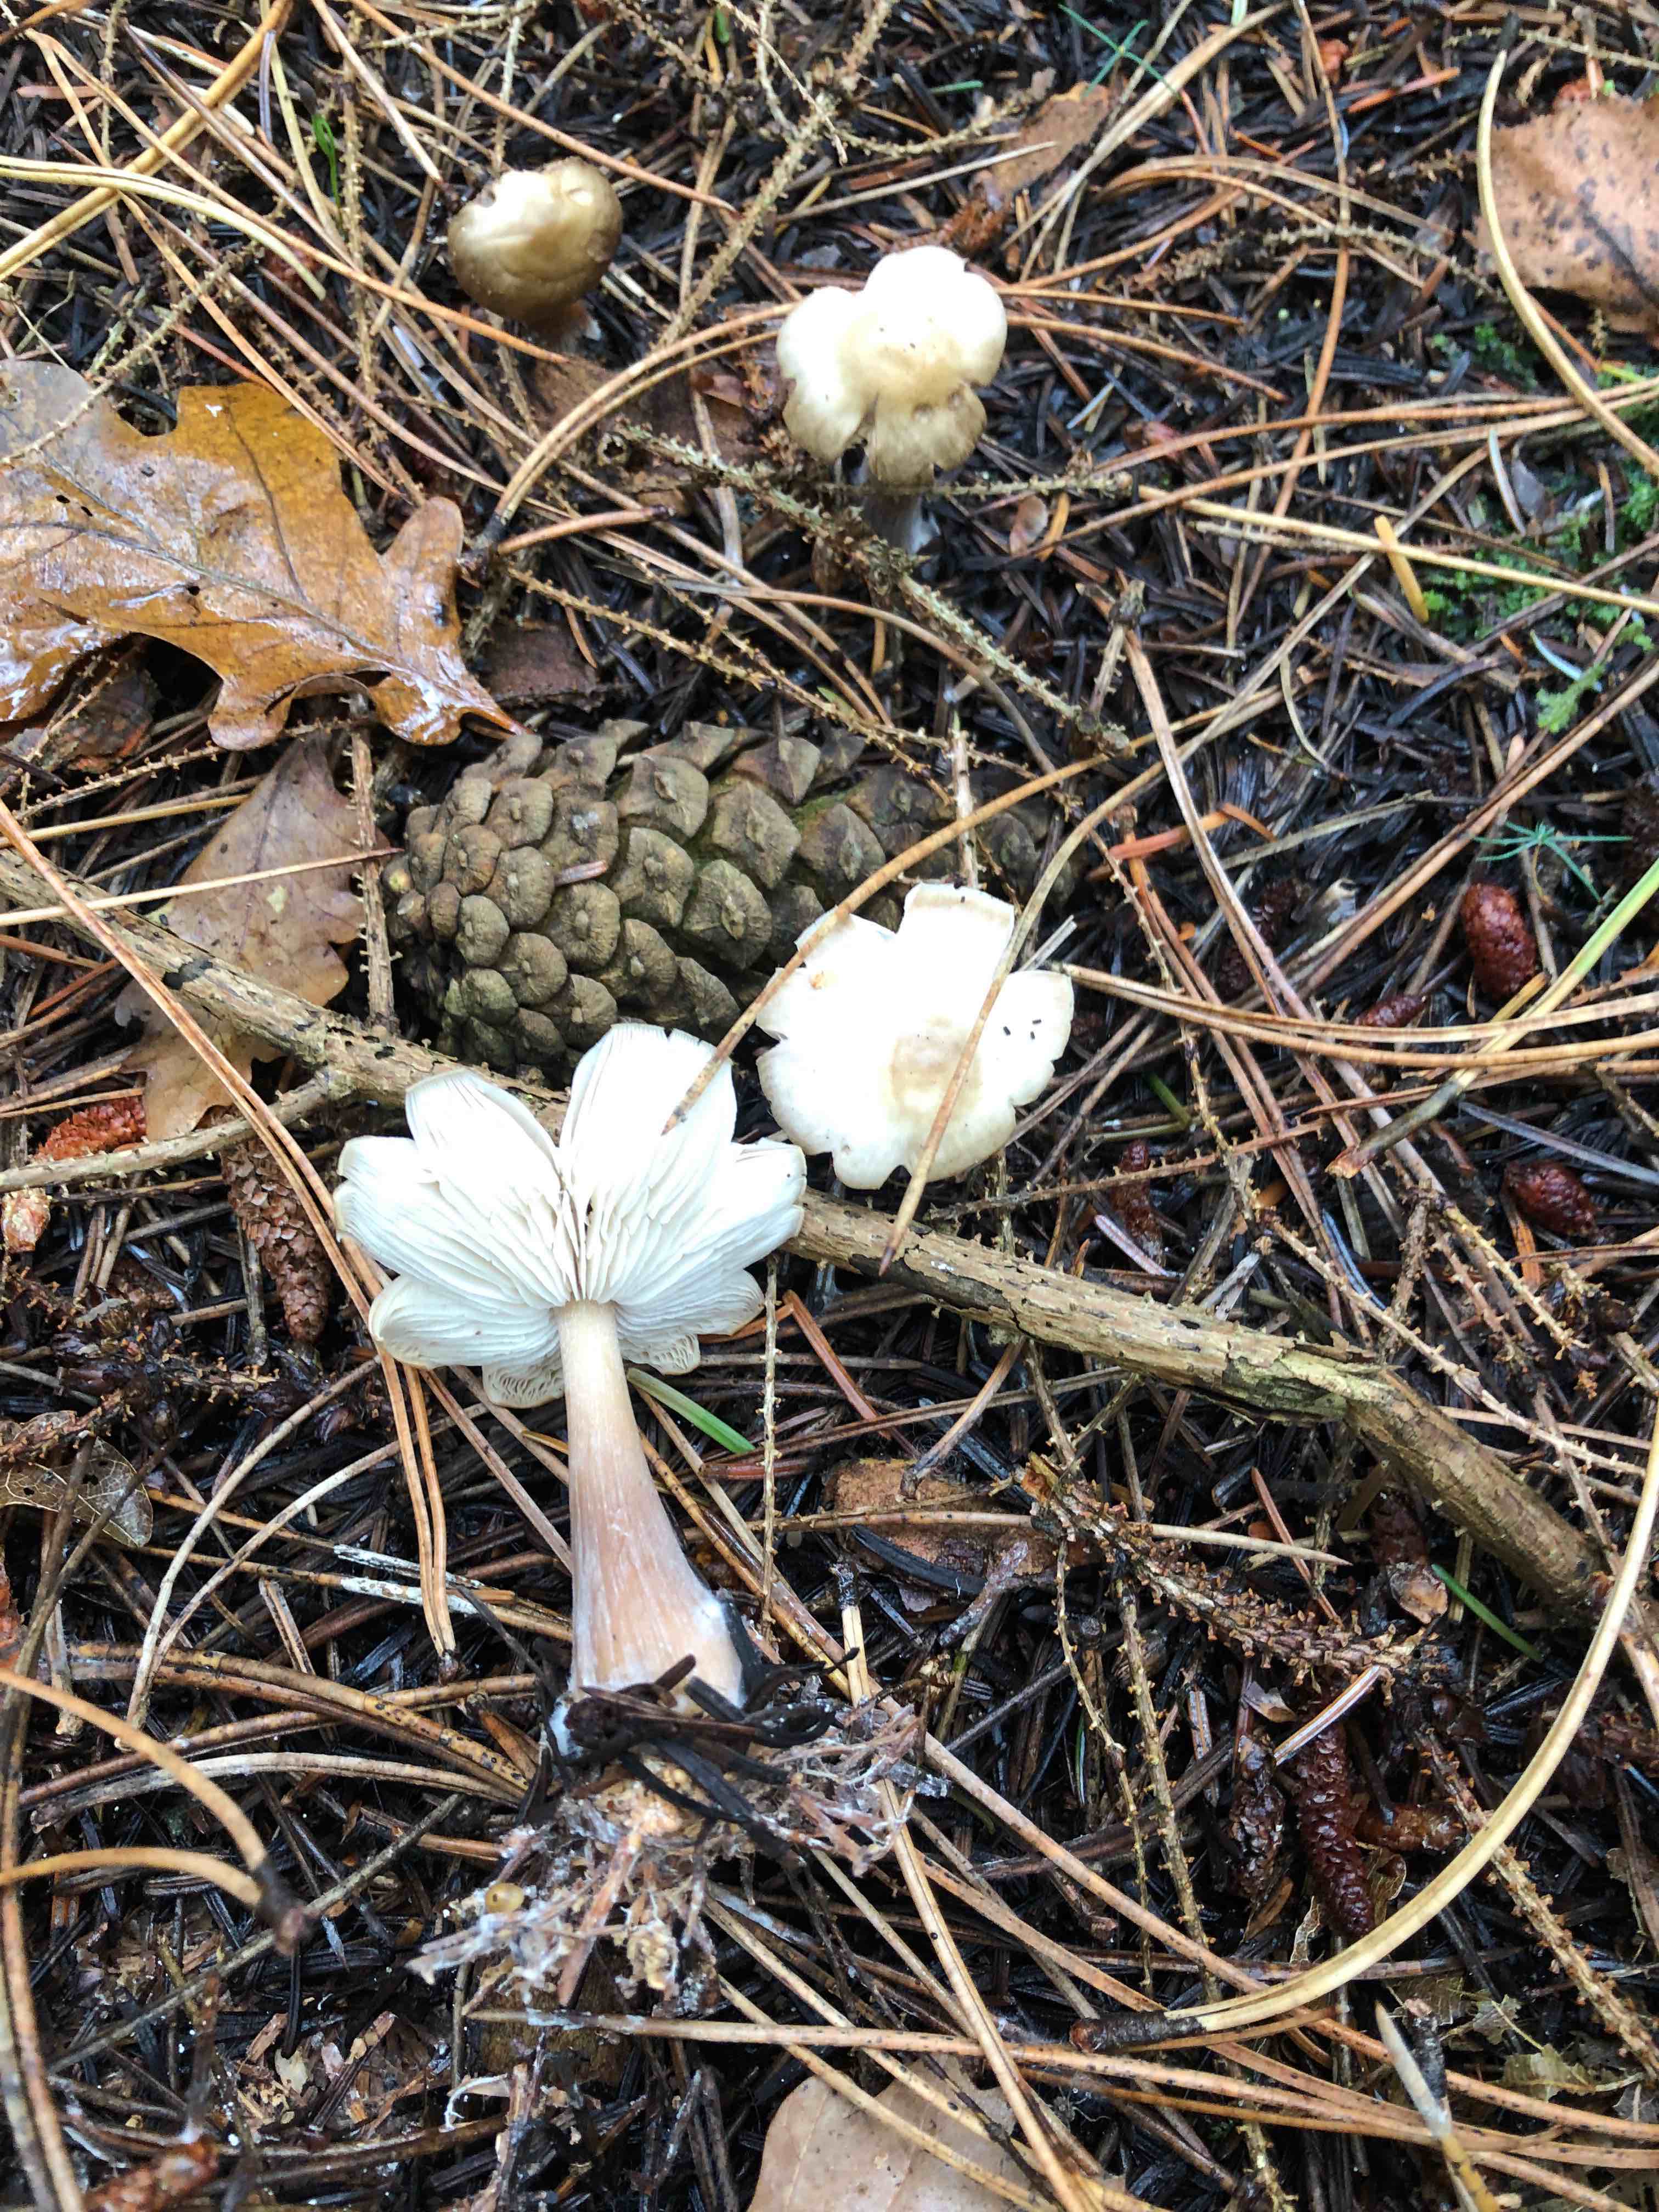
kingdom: Fungi
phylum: Basidiomycota
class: Agaricomycetes
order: Agaricales
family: Omphalotaceae
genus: Rhodocollybia
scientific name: Rhodocollybia asema
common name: horngrå fladhat
